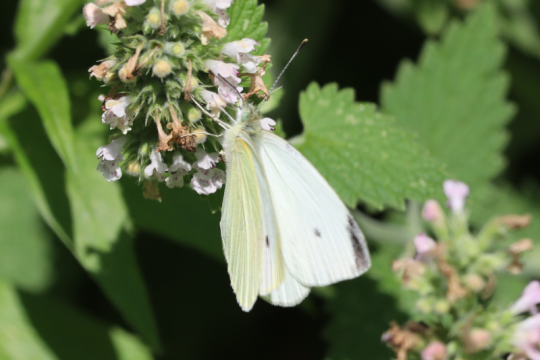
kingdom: Animalia
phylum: Arthropoda
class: Insecta
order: Lepidoptera
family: Pieridae
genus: Pieris
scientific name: Pieris rapae
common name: Cabbage White
